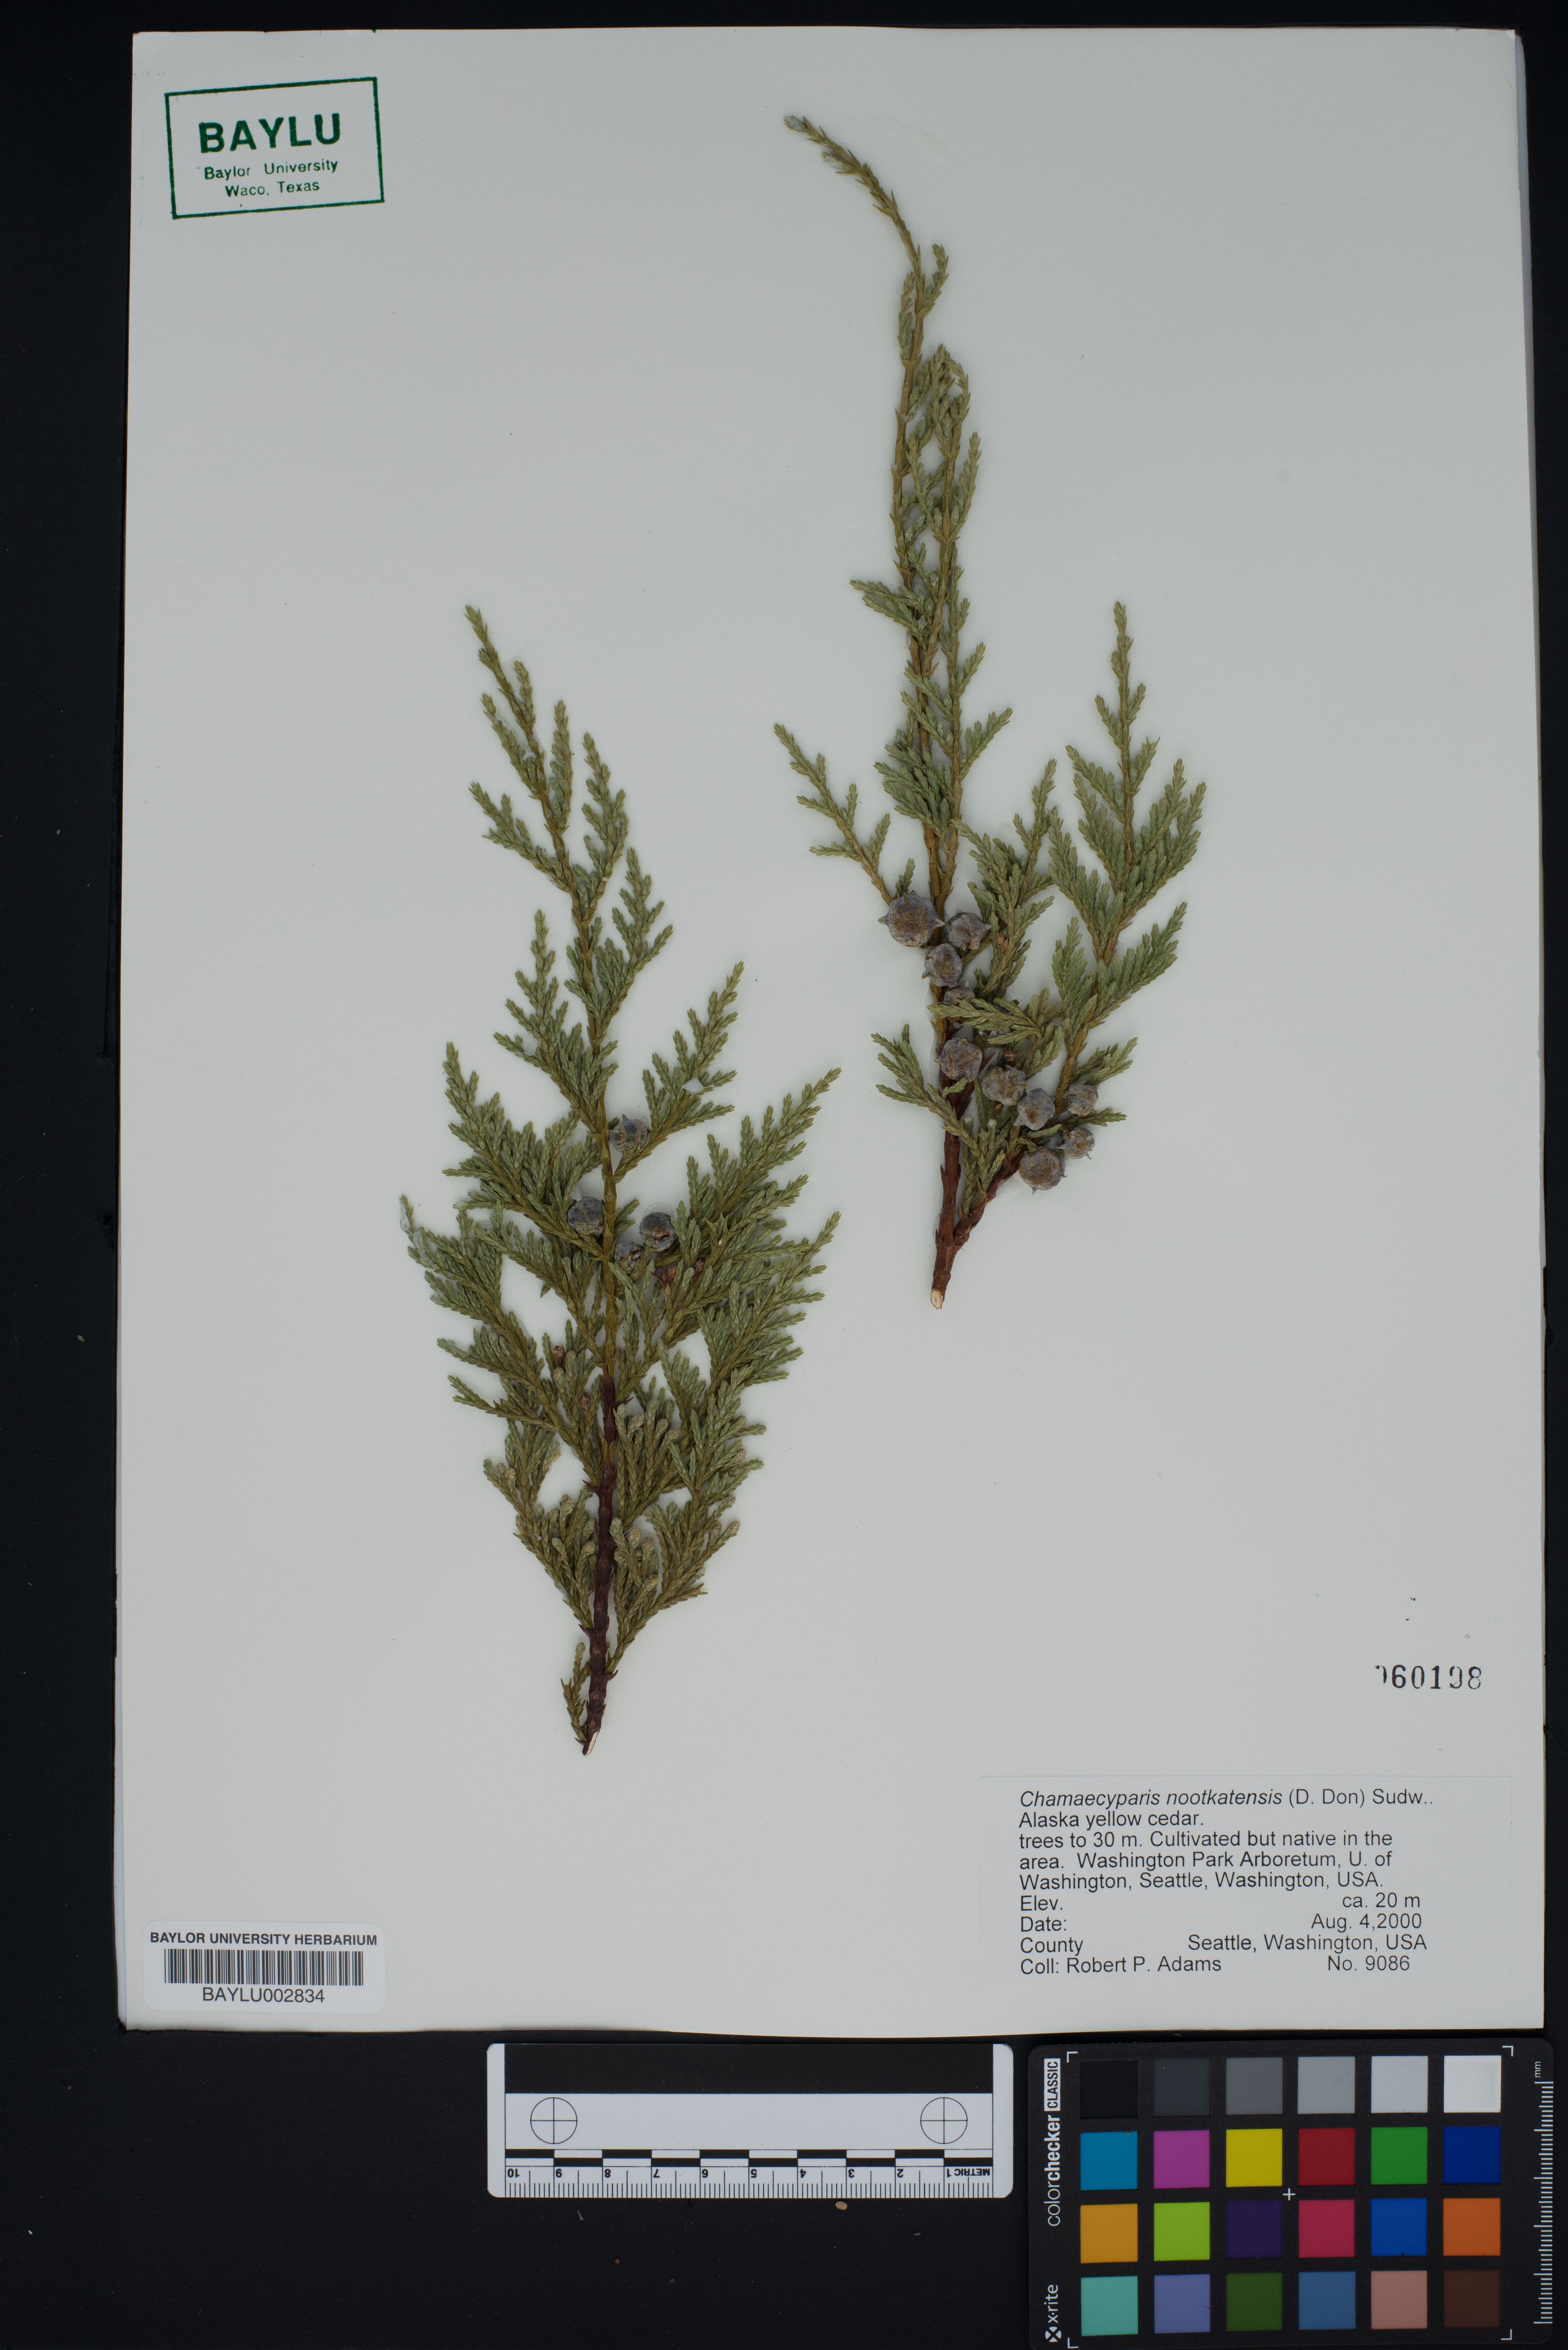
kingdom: Plantae
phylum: Tracheophyta
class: Pinopsida
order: Pinales
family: Cupressaceae
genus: Xanthocyparis
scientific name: Xanthocyparis nootkatensis
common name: Nootka cypress
